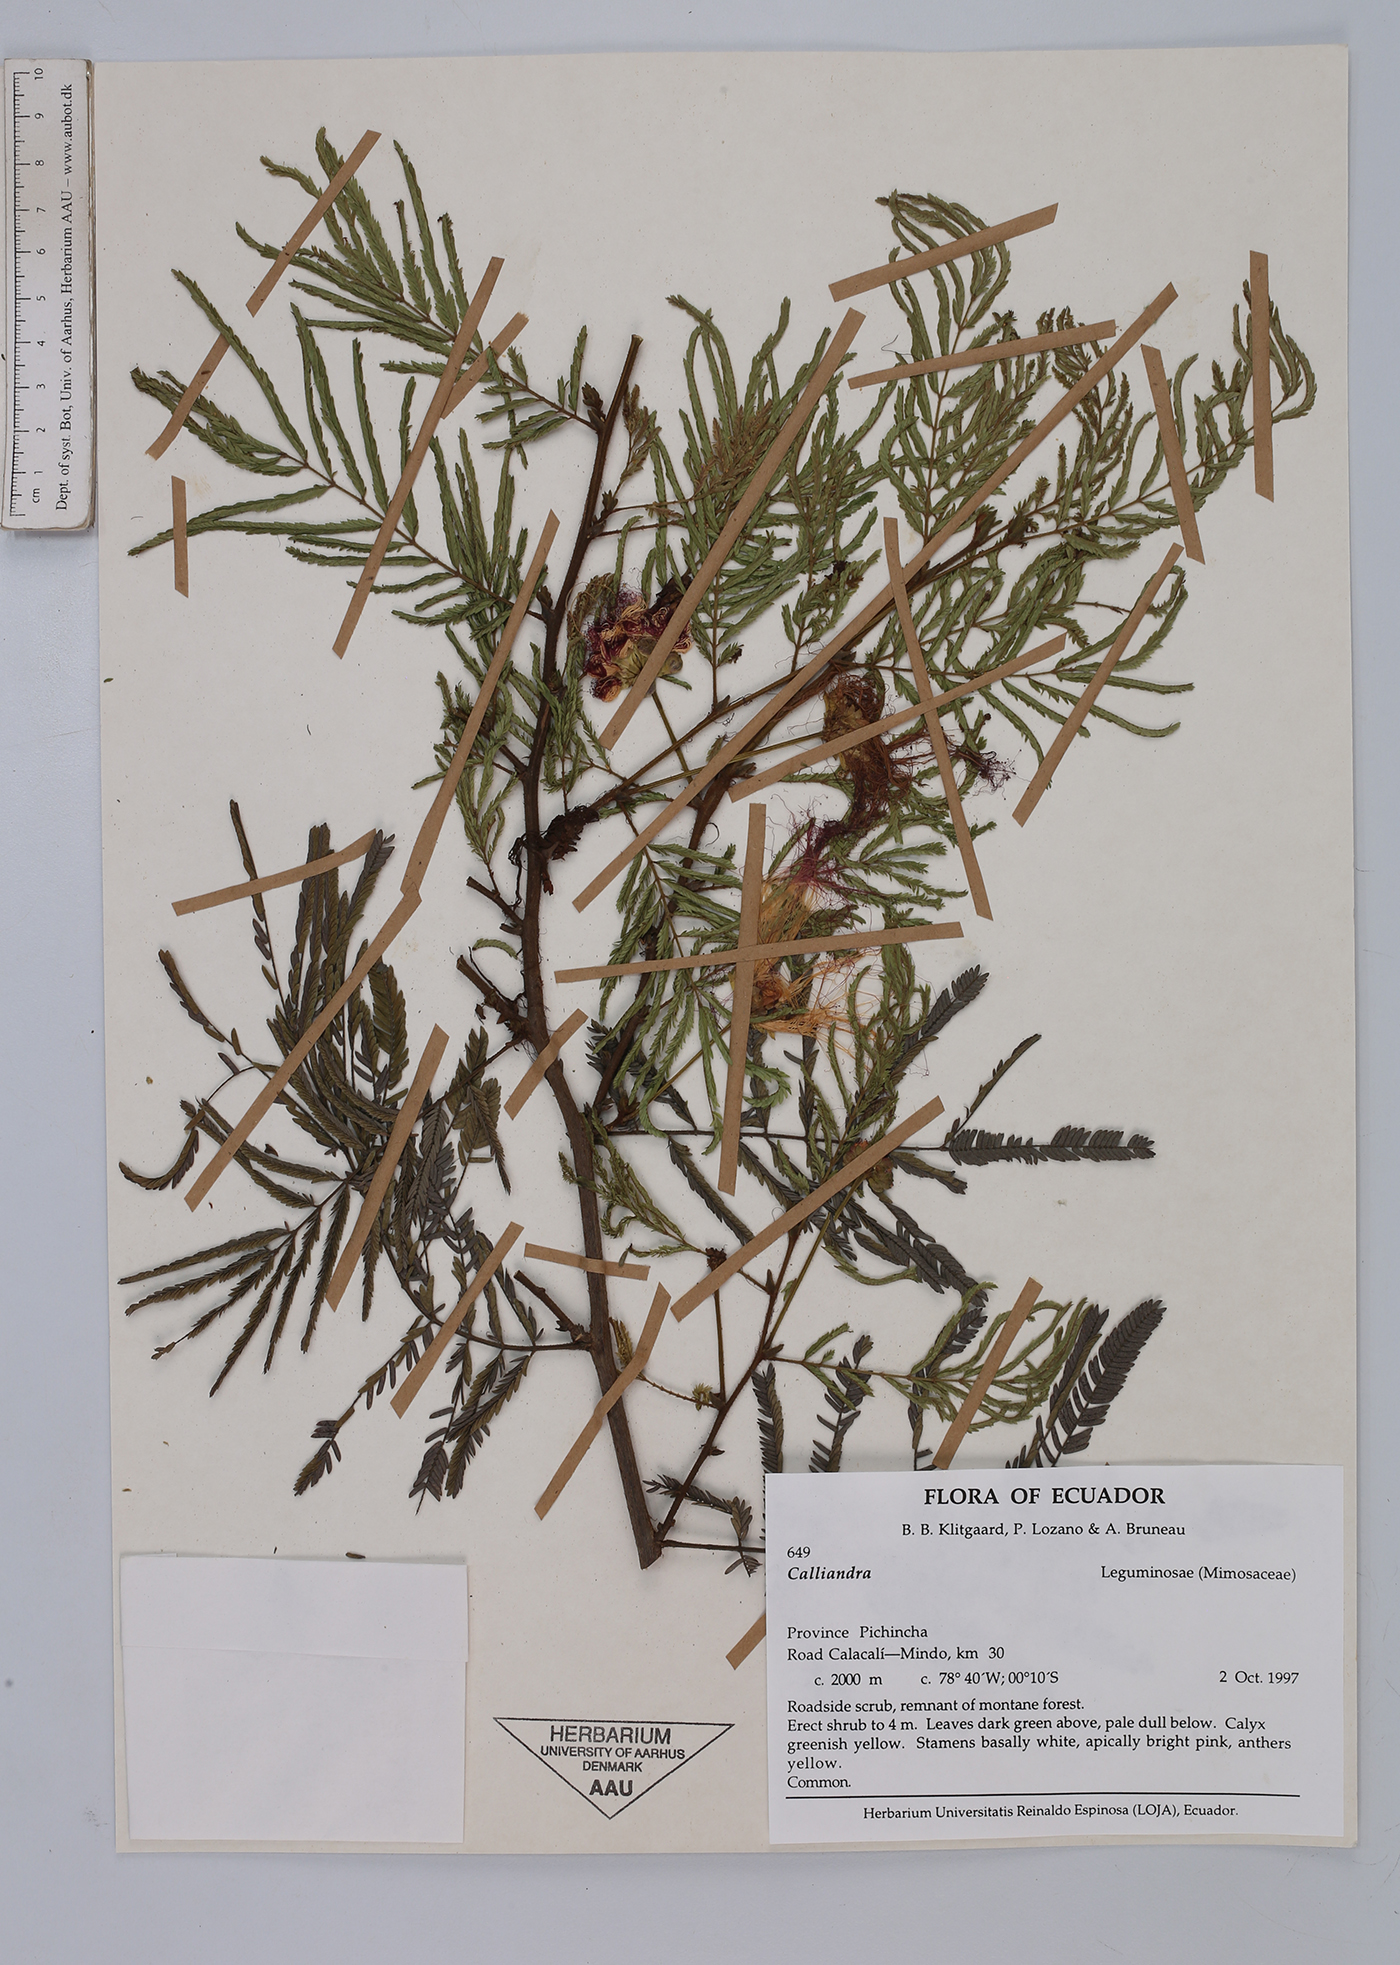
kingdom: Plantae
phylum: Tracheophyta
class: Magnoliopsida
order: Fabales
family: Fabaceae
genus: Calliandra
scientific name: Calliandra pittieri
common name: Carbonero de avenidas
